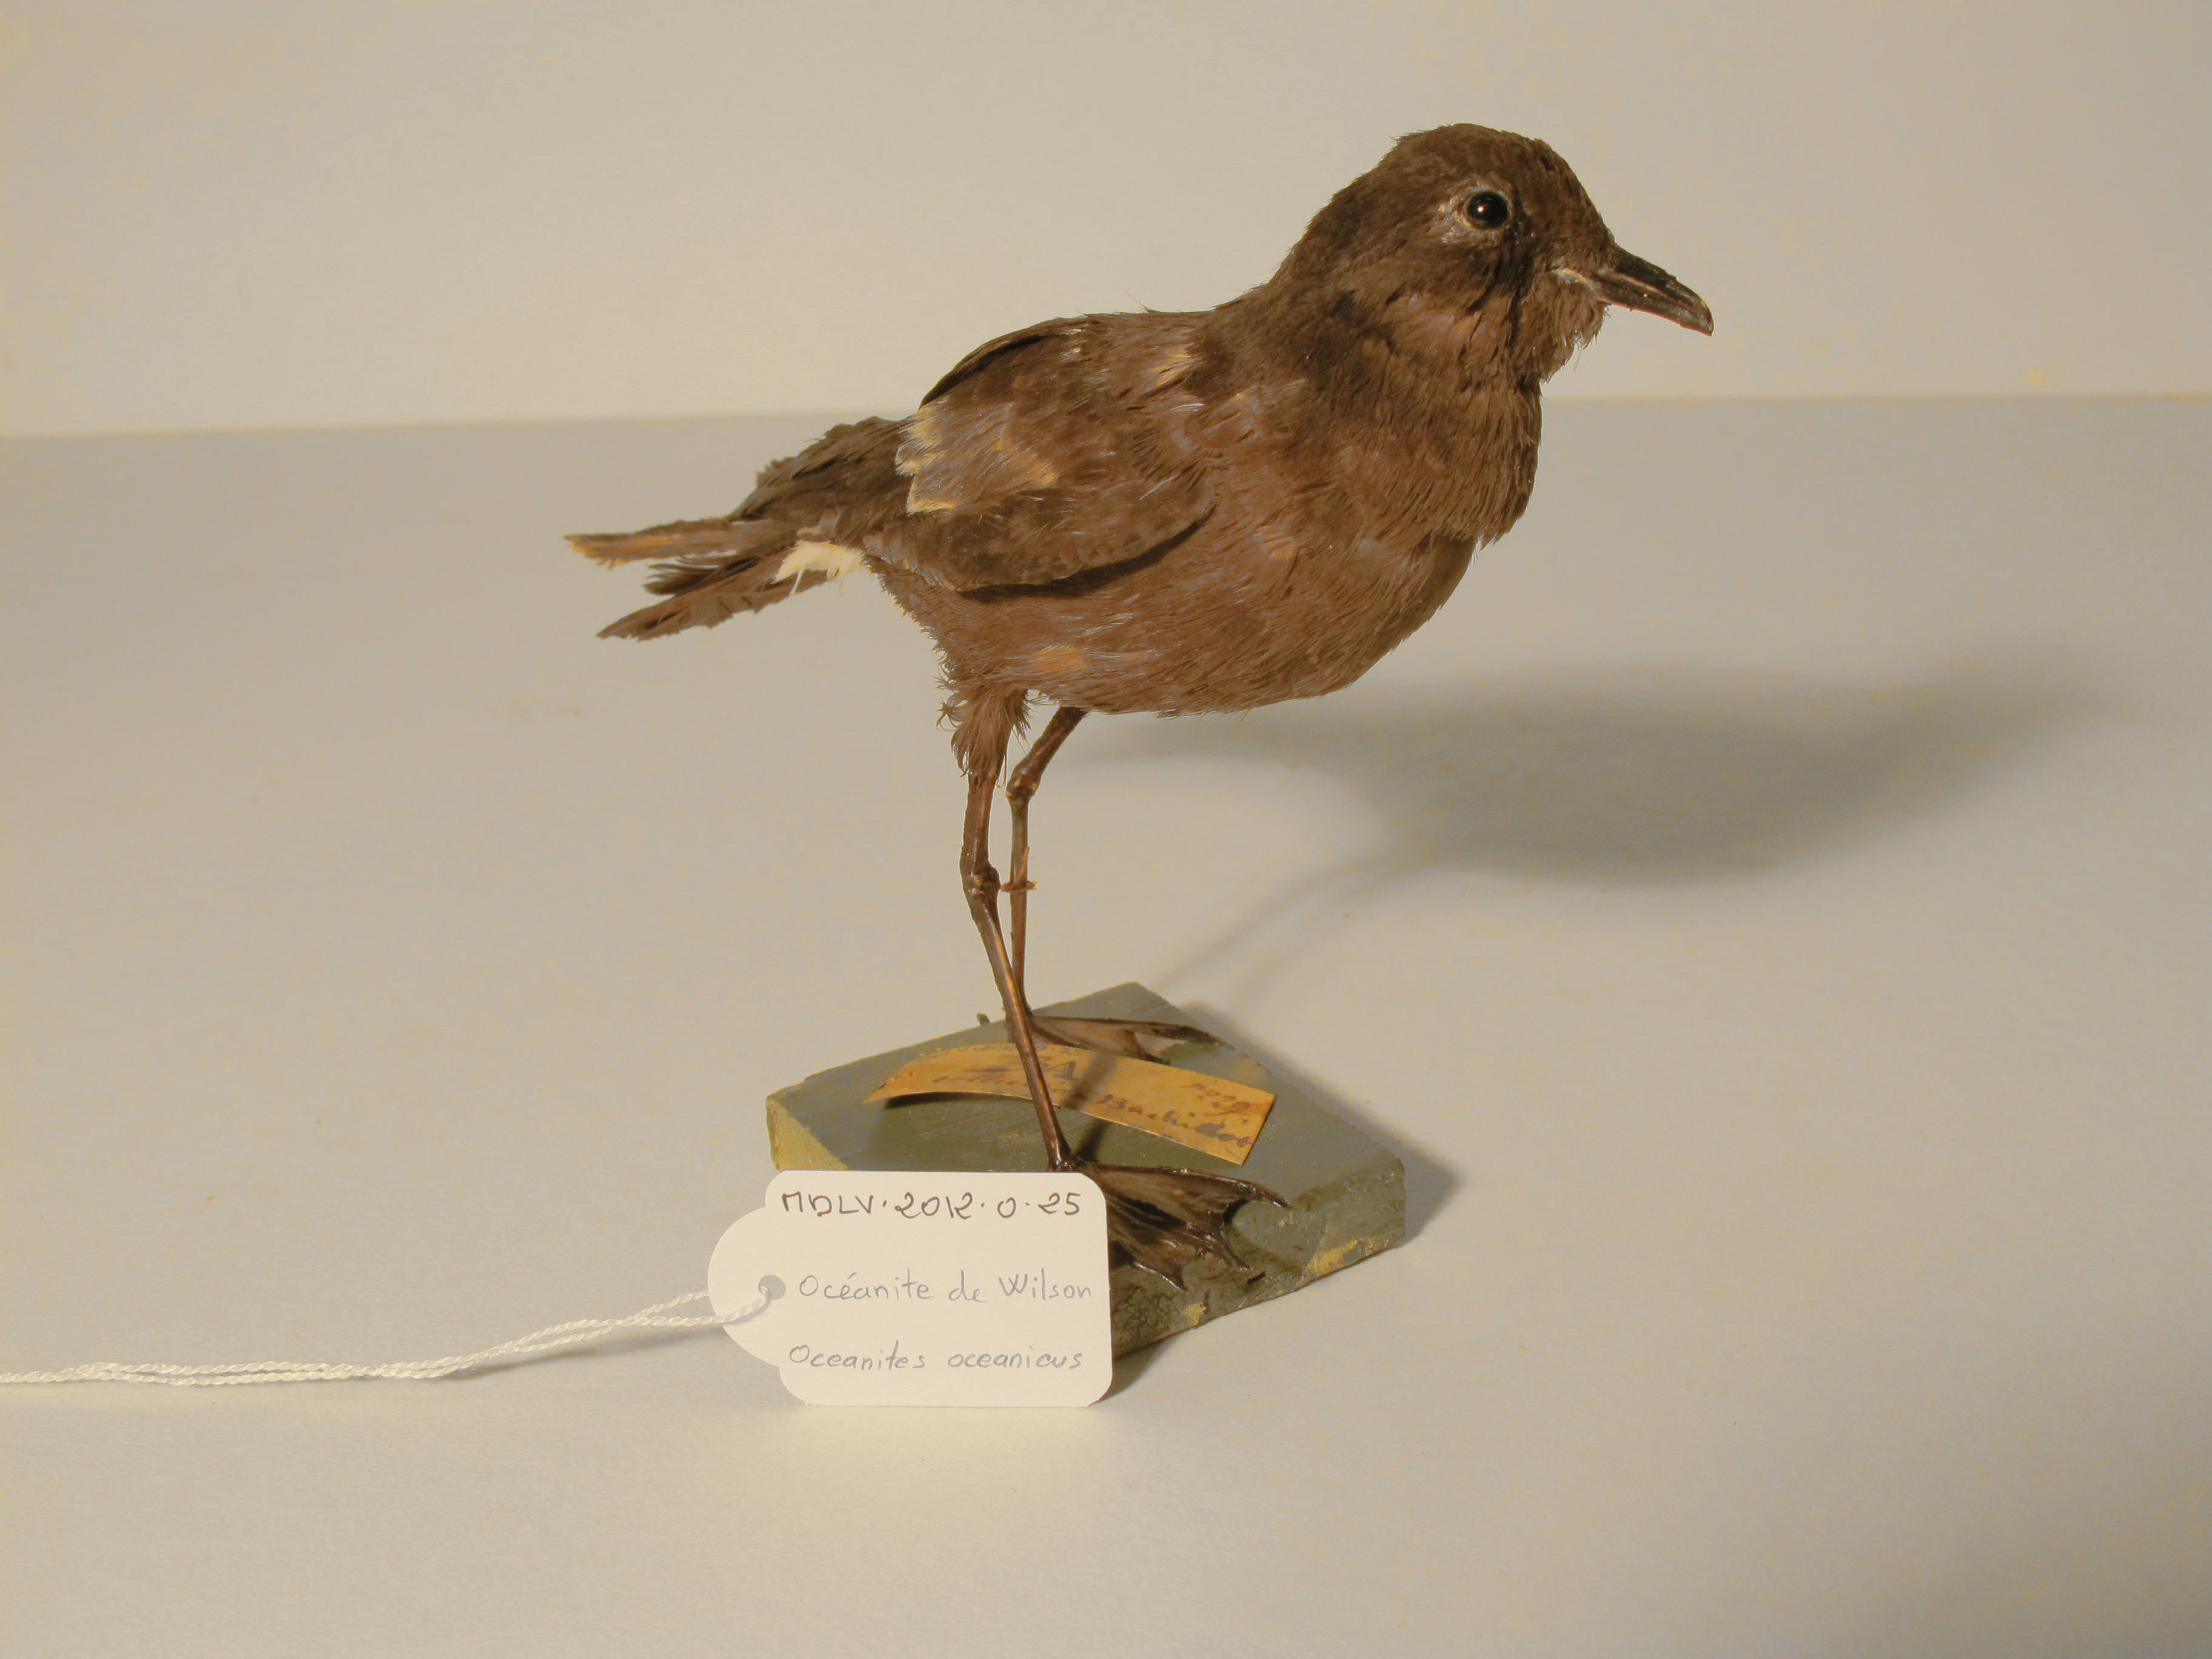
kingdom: Animalia
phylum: Chordata
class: Aves
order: Procellariiformes
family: Hydrobatidae
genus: Oceanites
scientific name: Oceanites oceanicus
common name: Wilson's Storm-petrel
